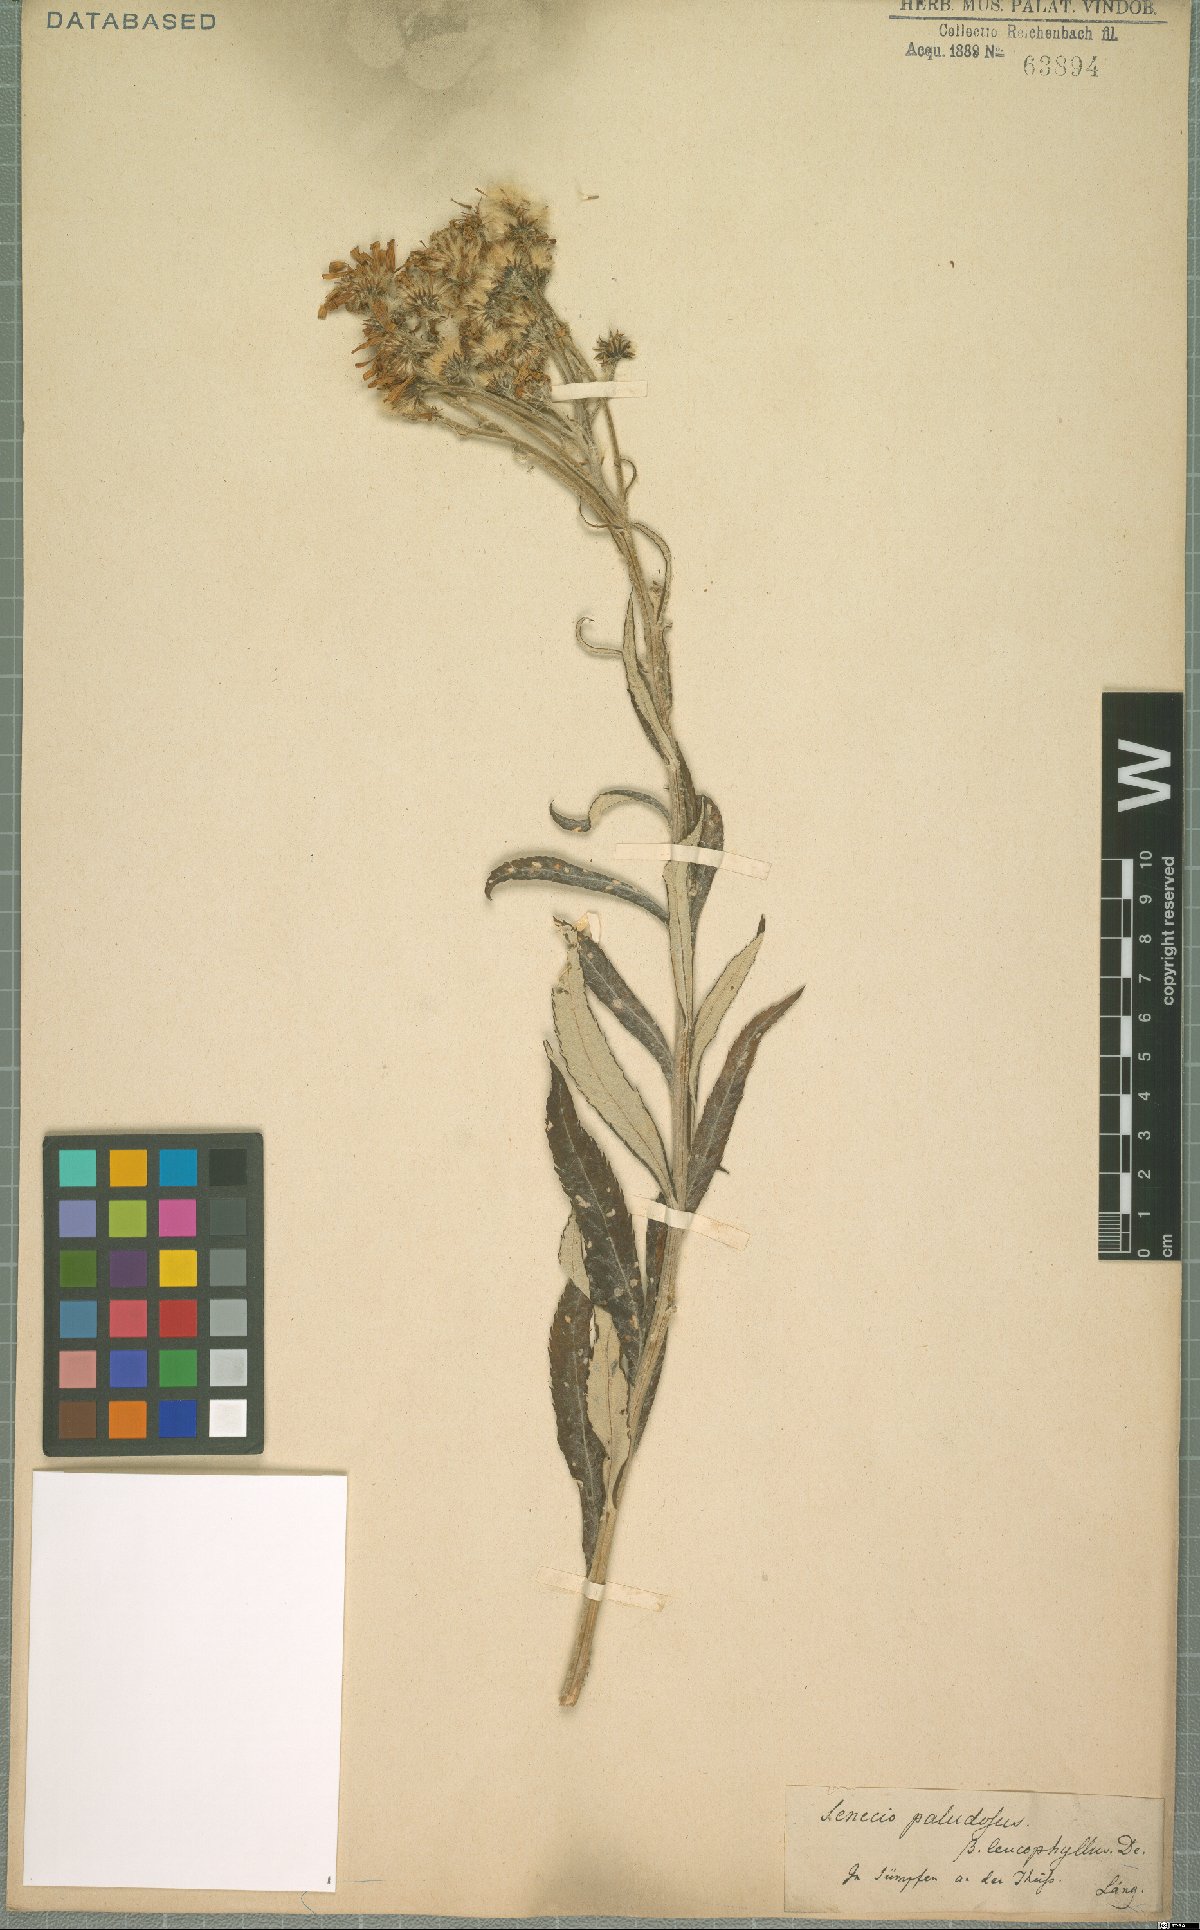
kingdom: Plantae
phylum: Tracheophyta
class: Magnoliopsida
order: Asterales
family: Asteraceae
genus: Jacobaea
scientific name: Jacobaea paludosa
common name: Fen ragwort
